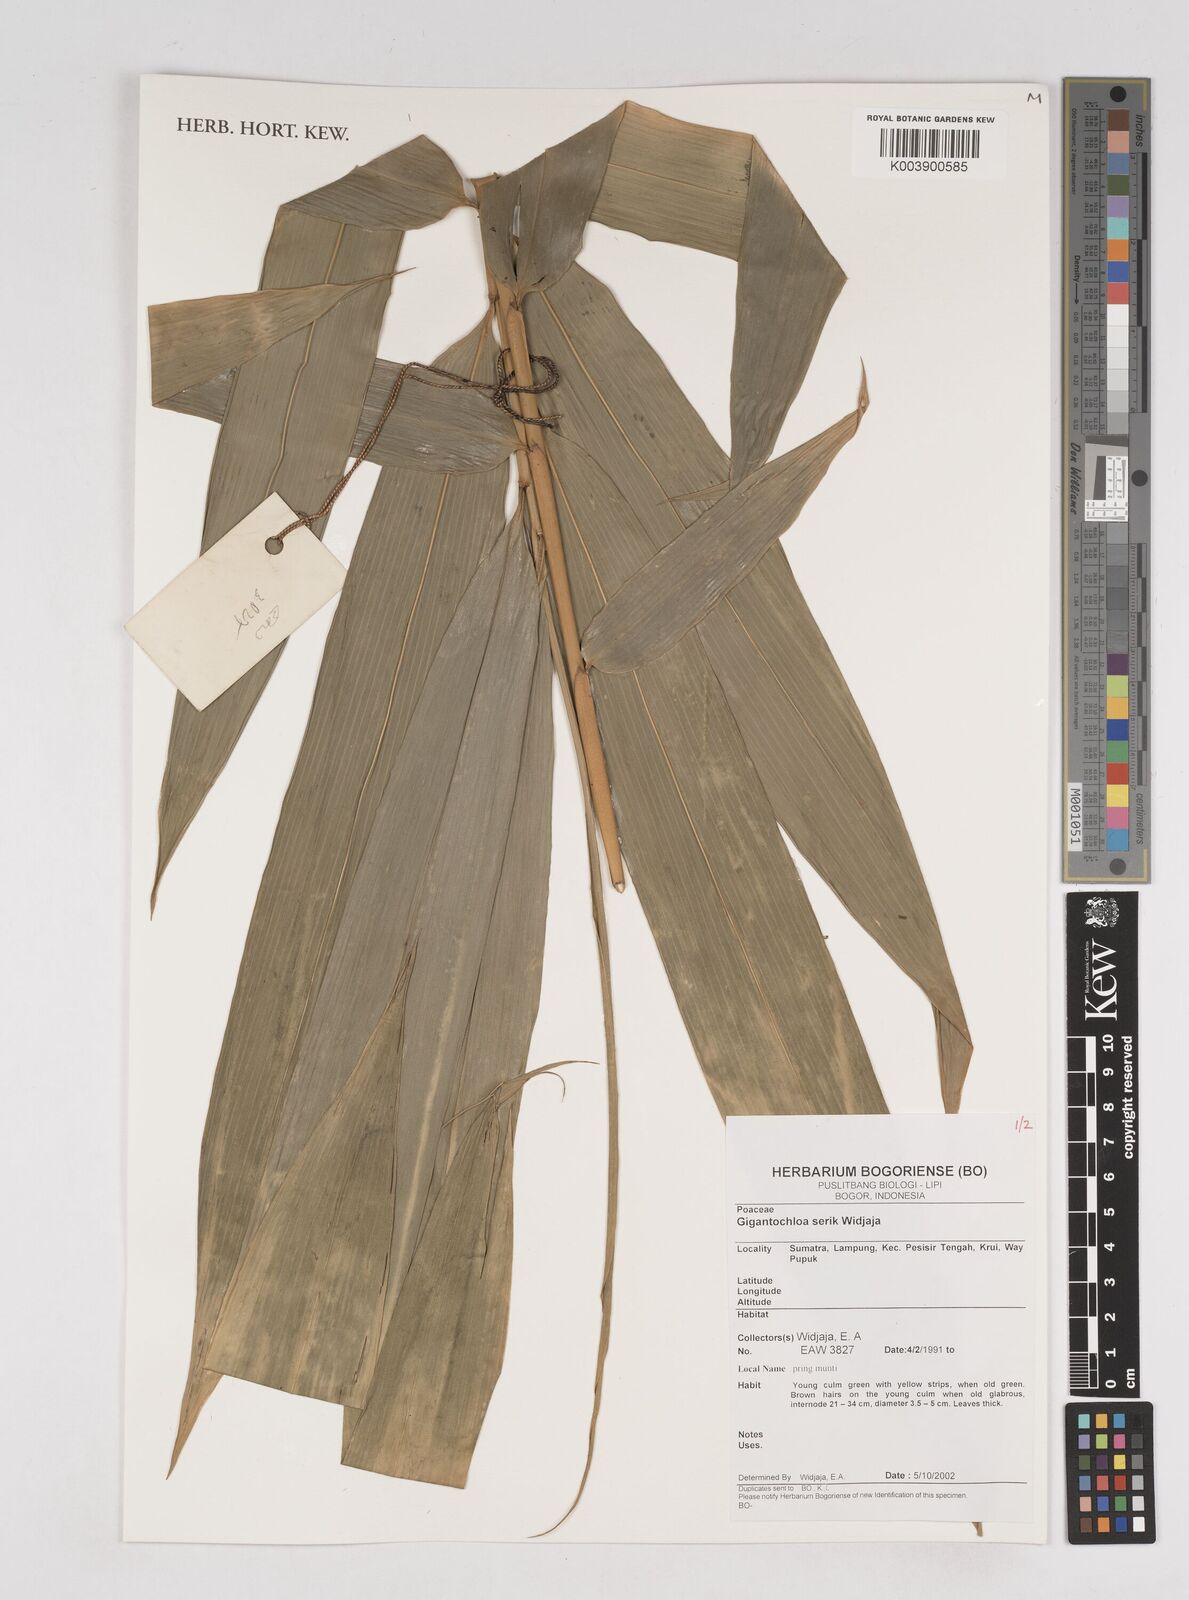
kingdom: Plantae
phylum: Tracheophyta
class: Liliopsida
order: Poales
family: Poaceae
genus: Gigantochloa
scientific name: Gigantochloa serik
